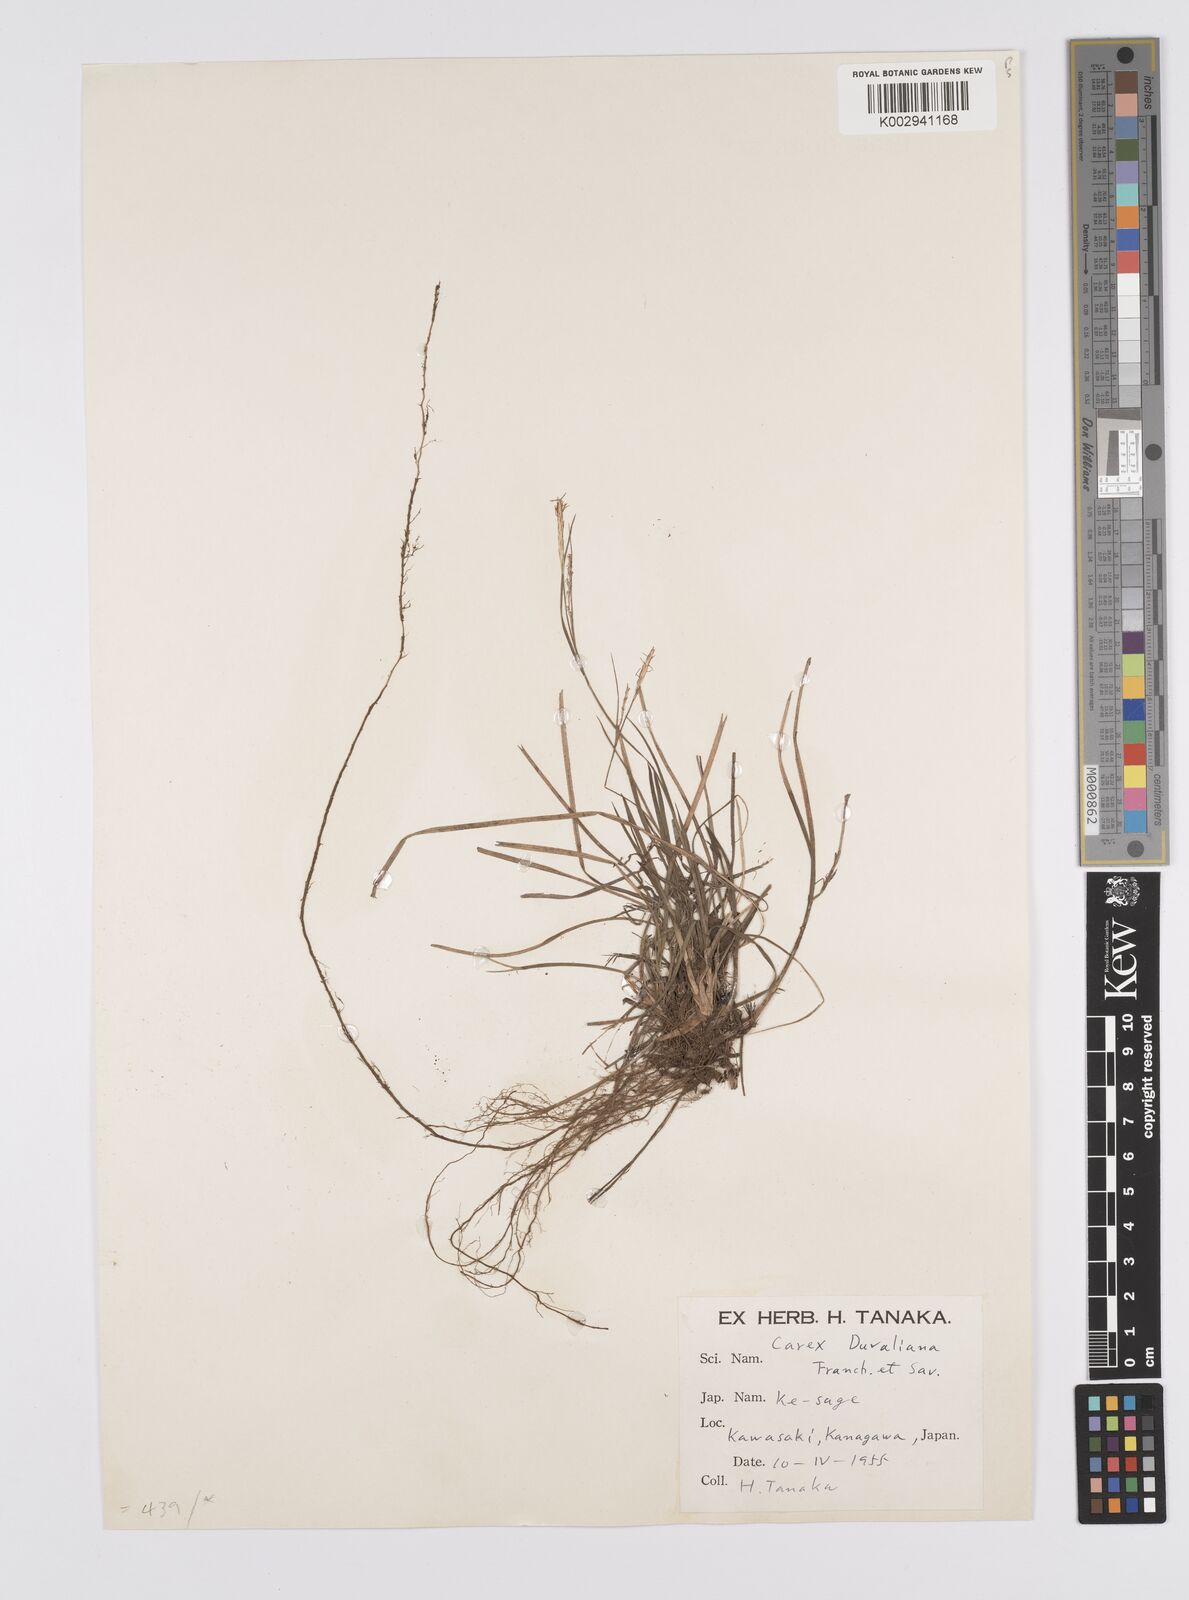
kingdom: Plantae
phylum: Tracheophyta
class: Liliopsida
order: Poales
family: Cyperaceae
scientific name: Cyperaceae
